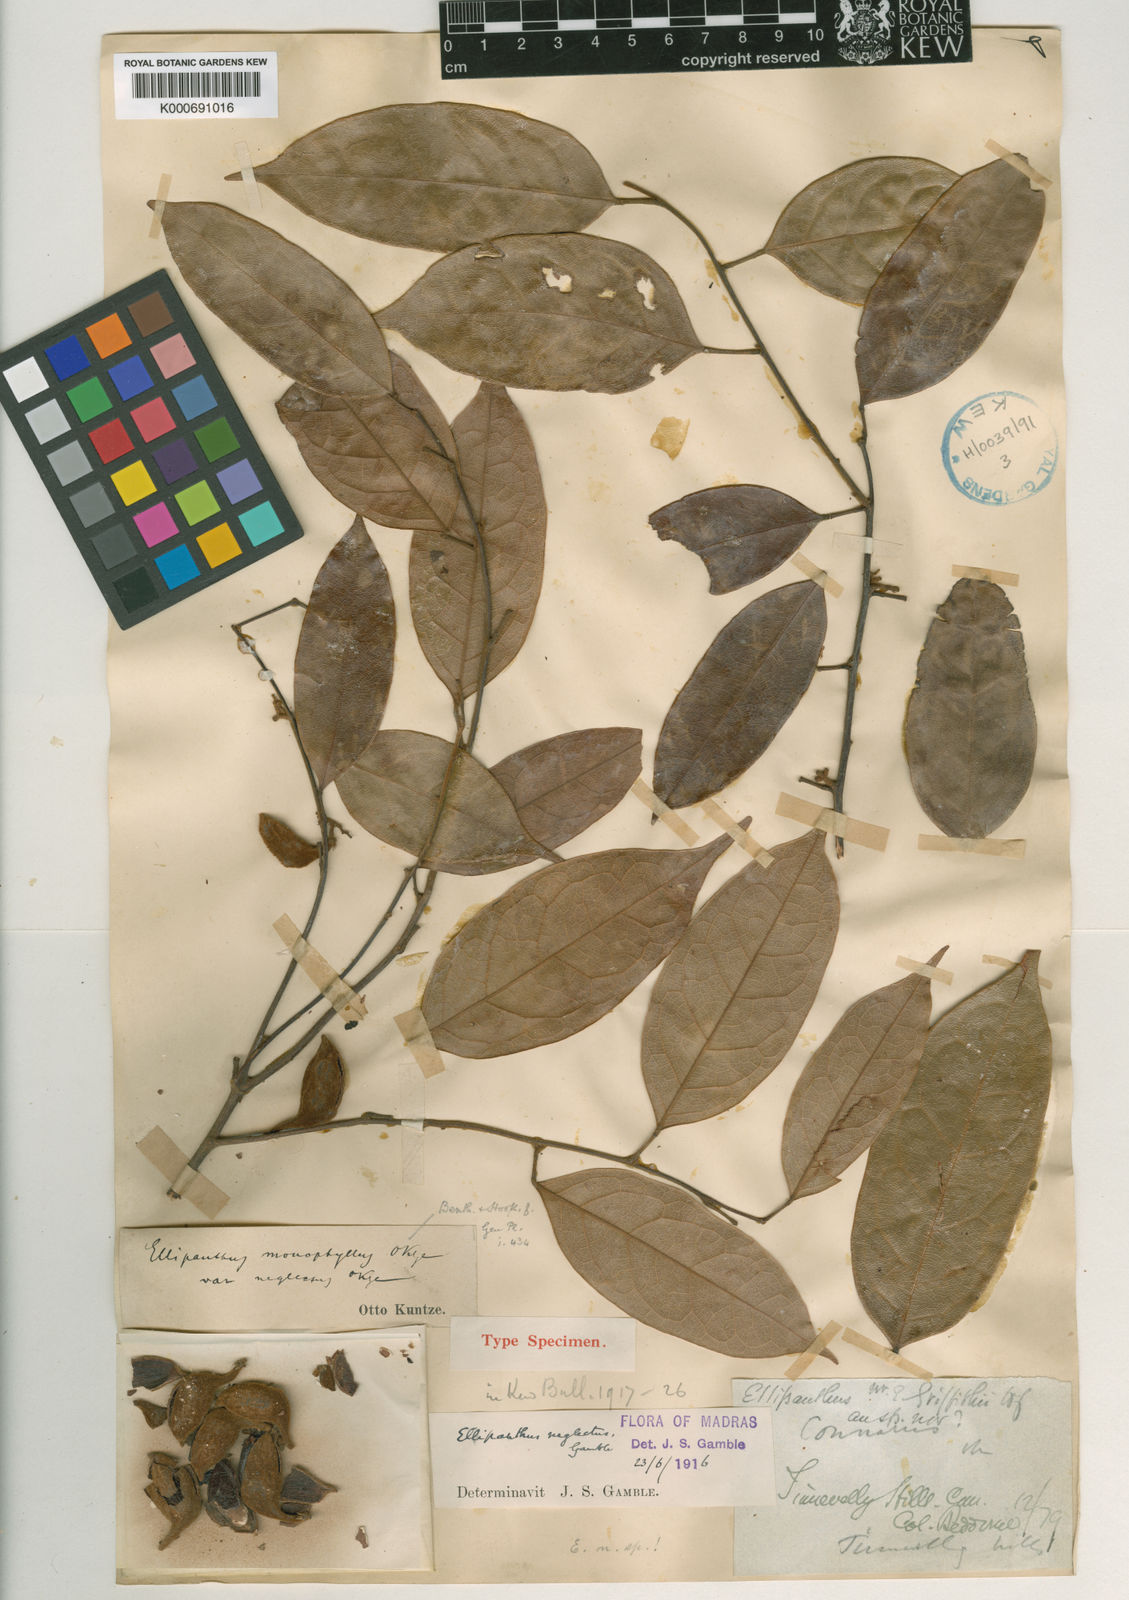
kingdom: Plantae
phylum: Tracheophyta
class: Magnoliopsida
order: Oxalidales
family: Connaraceae
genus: Ellipanthus
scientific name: Ellipanthus tomentosus
